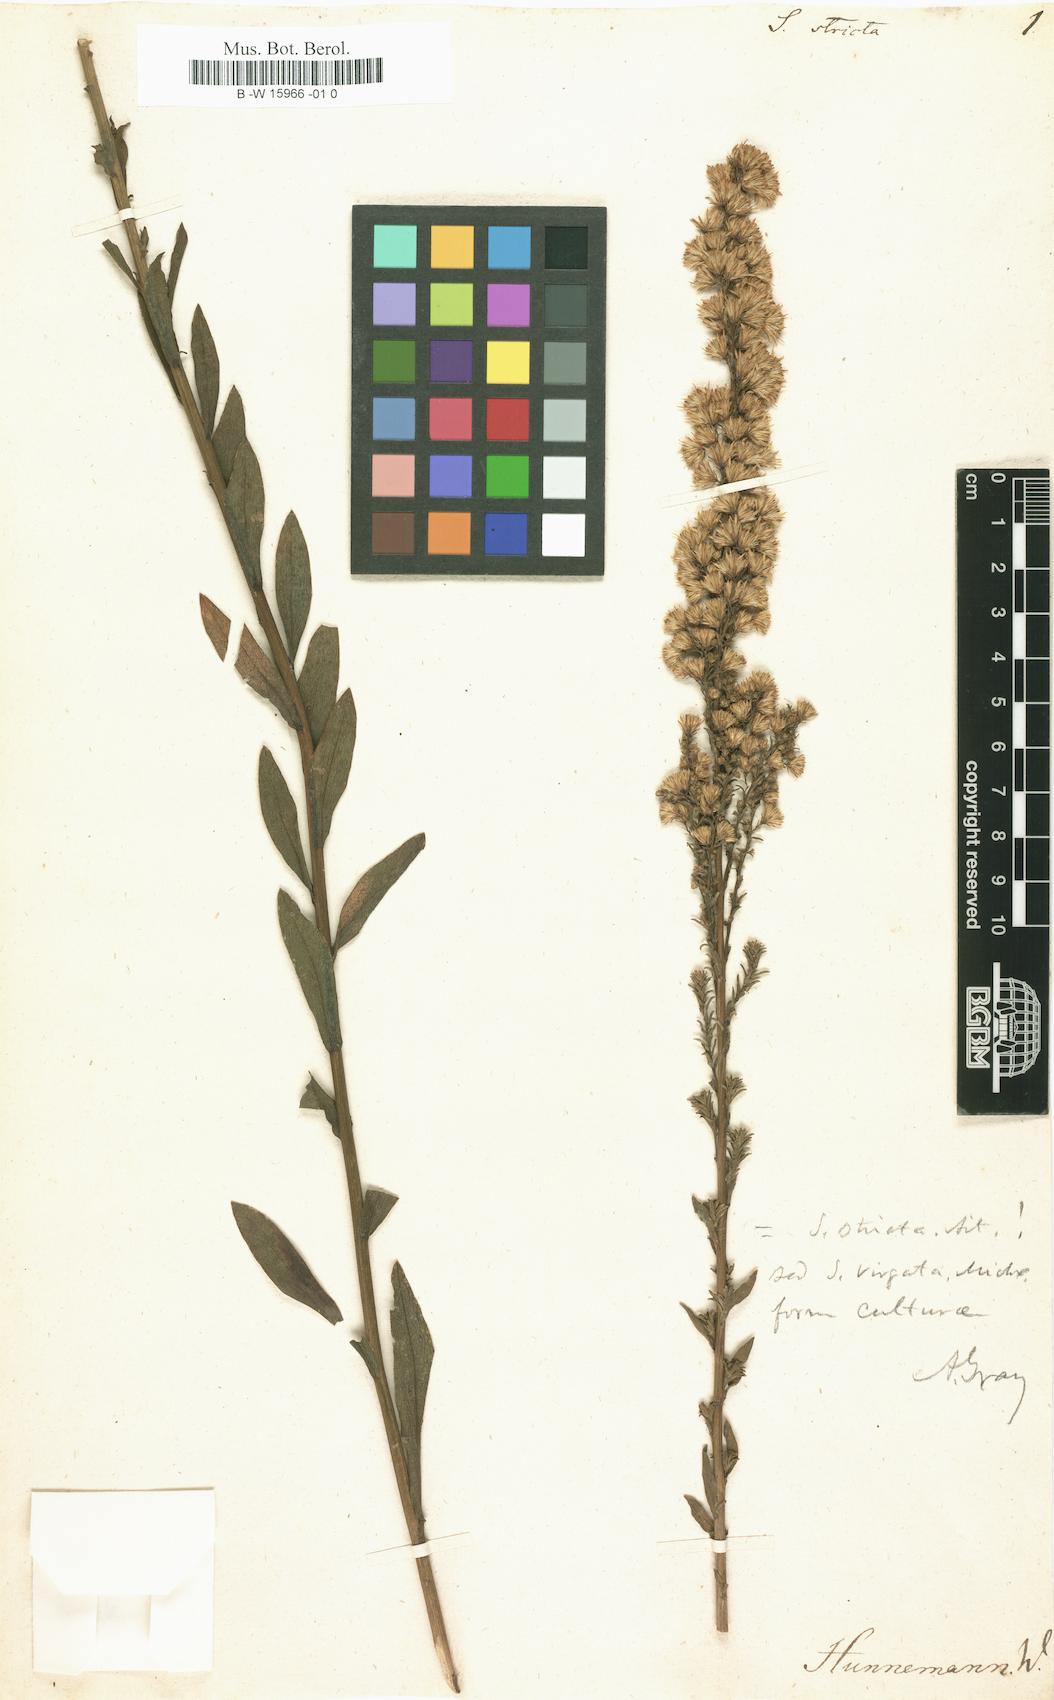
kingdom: Plantae
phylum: Tracheophyta
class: Magnoliopsida
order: Asterales
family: Asteraceae
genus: Solidago
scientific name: Solidago stricta
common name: Pine barren bog goldenrod
